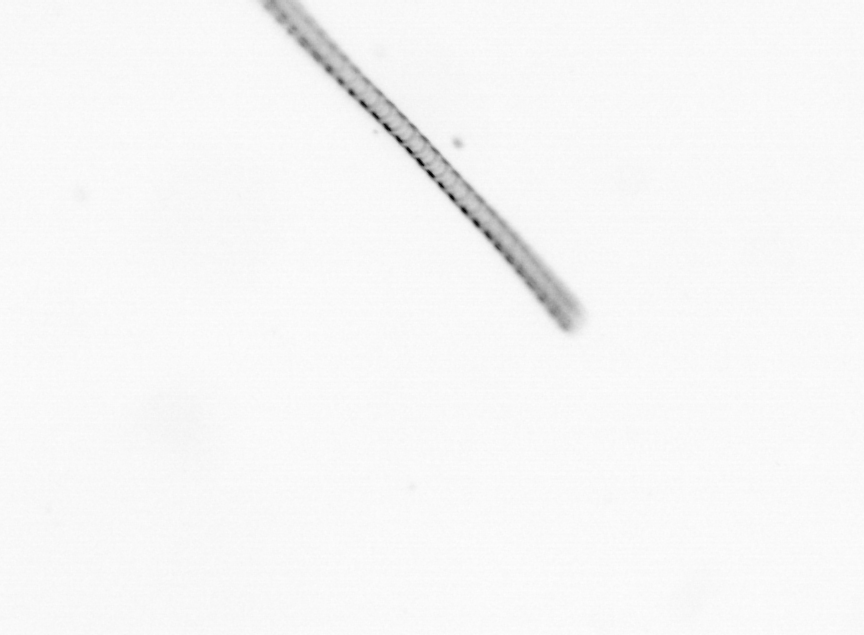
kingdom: Chromista
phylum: Ochrophyta
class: Bacillariophyceae
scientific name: Bacillariophyceae
